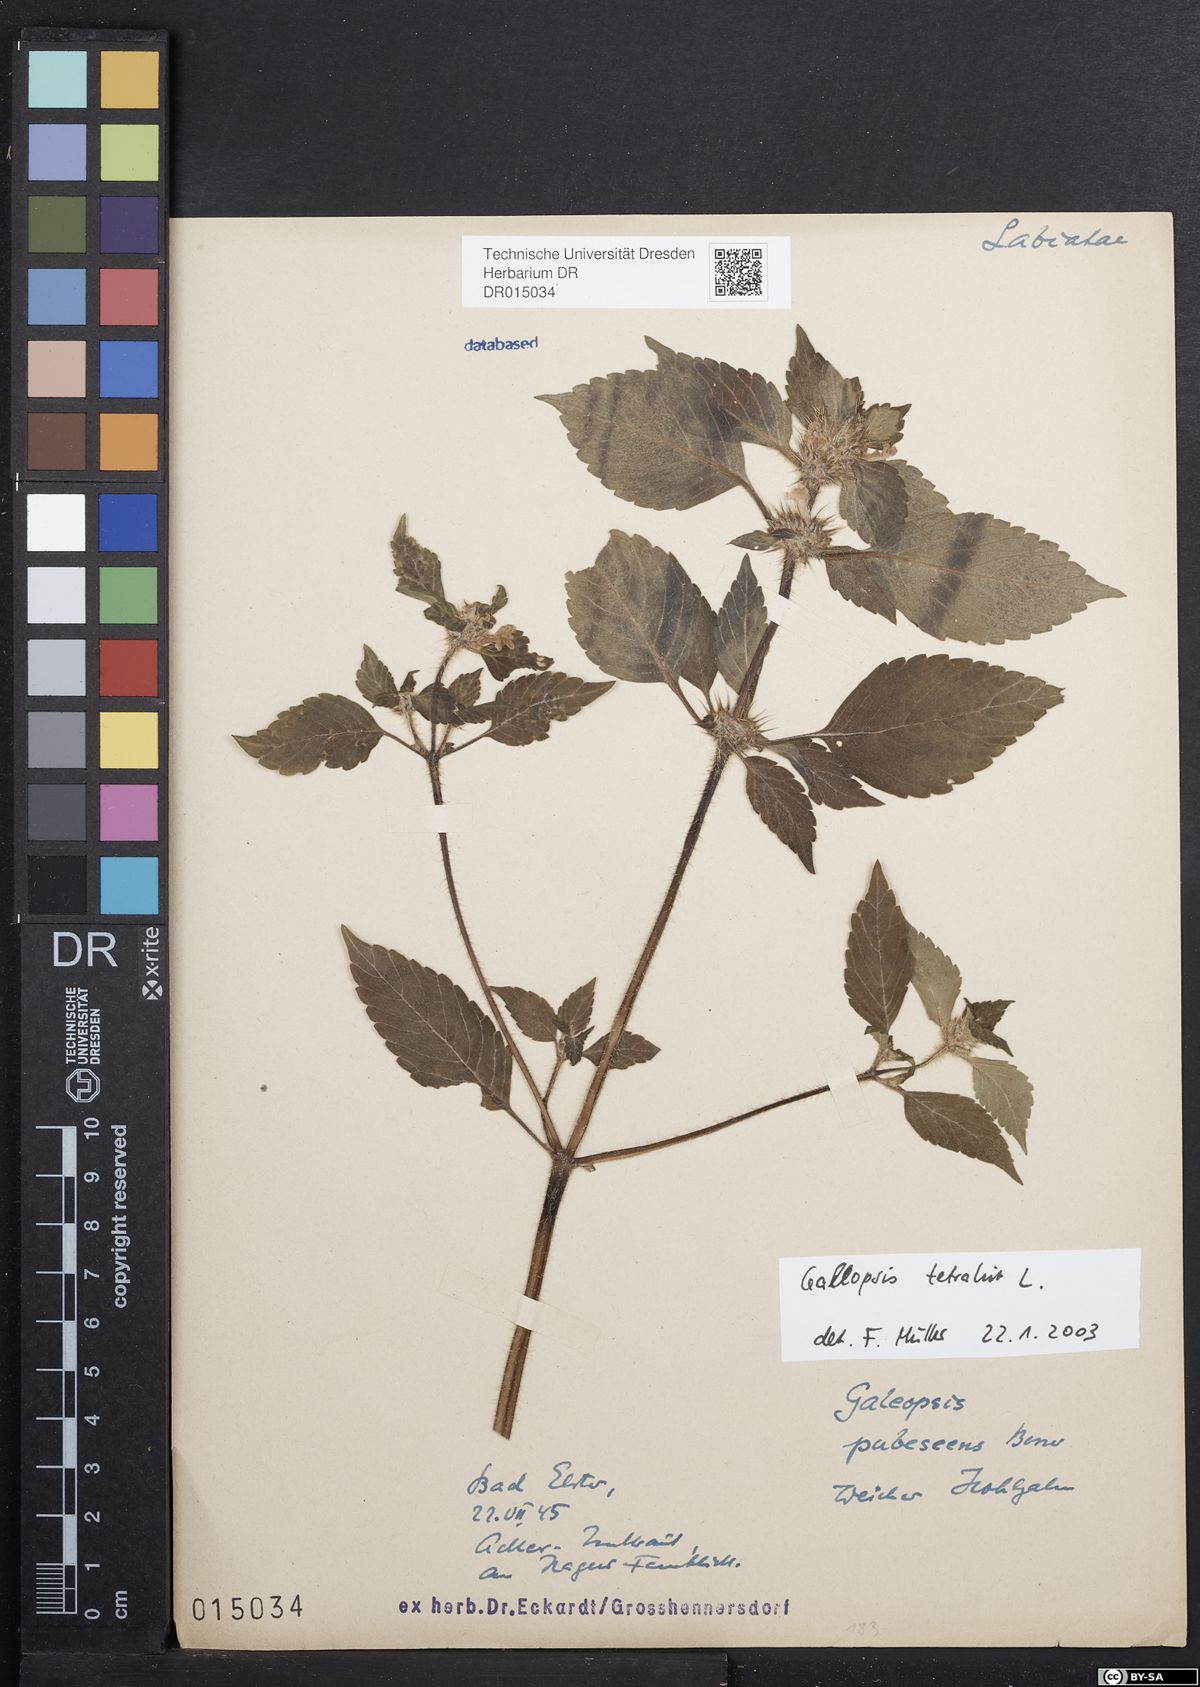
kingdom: Plantae
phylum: Tracheophyta
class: Magnoliopsida
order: Lamiales
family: Lamiaceae
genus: Galeopsis
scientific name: Galeopsis tetrahit
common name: Common hemp-nettle
